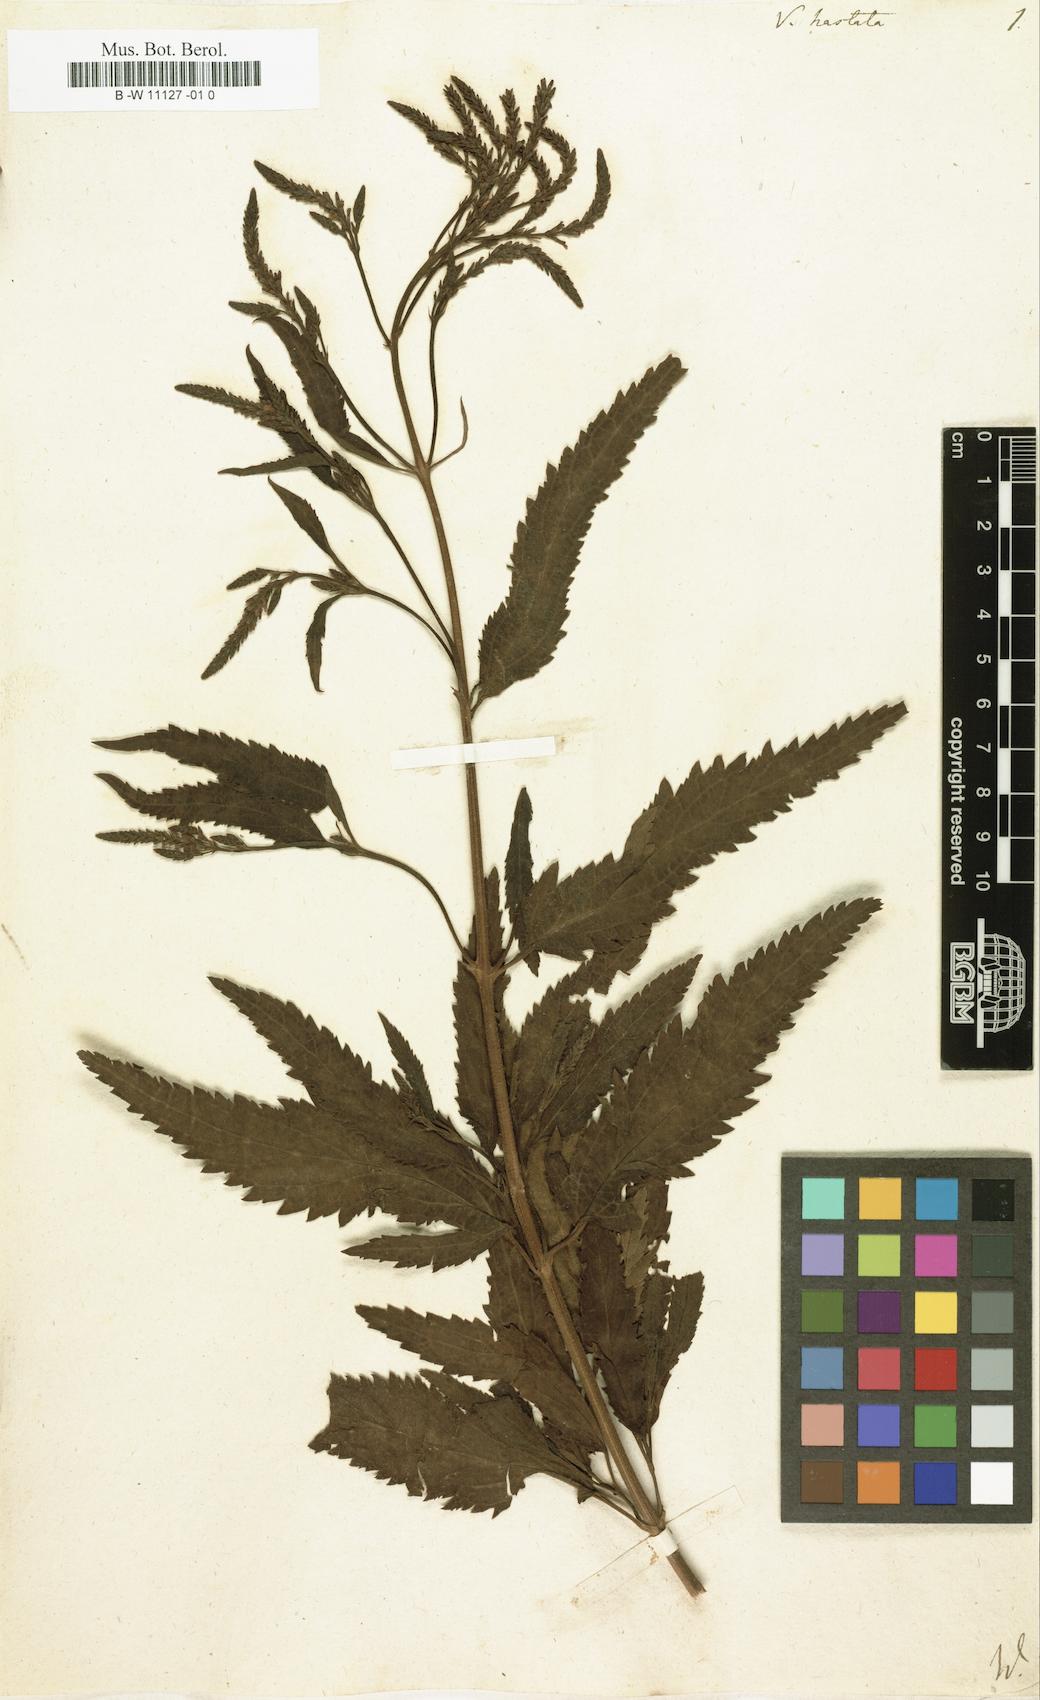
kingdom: Plantae
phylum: Tracheophyta
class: Magnoliopsida
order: Lamiales
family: Verbenaceae
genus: Verbena
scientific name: Verbena hastata
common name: American blue vervain
